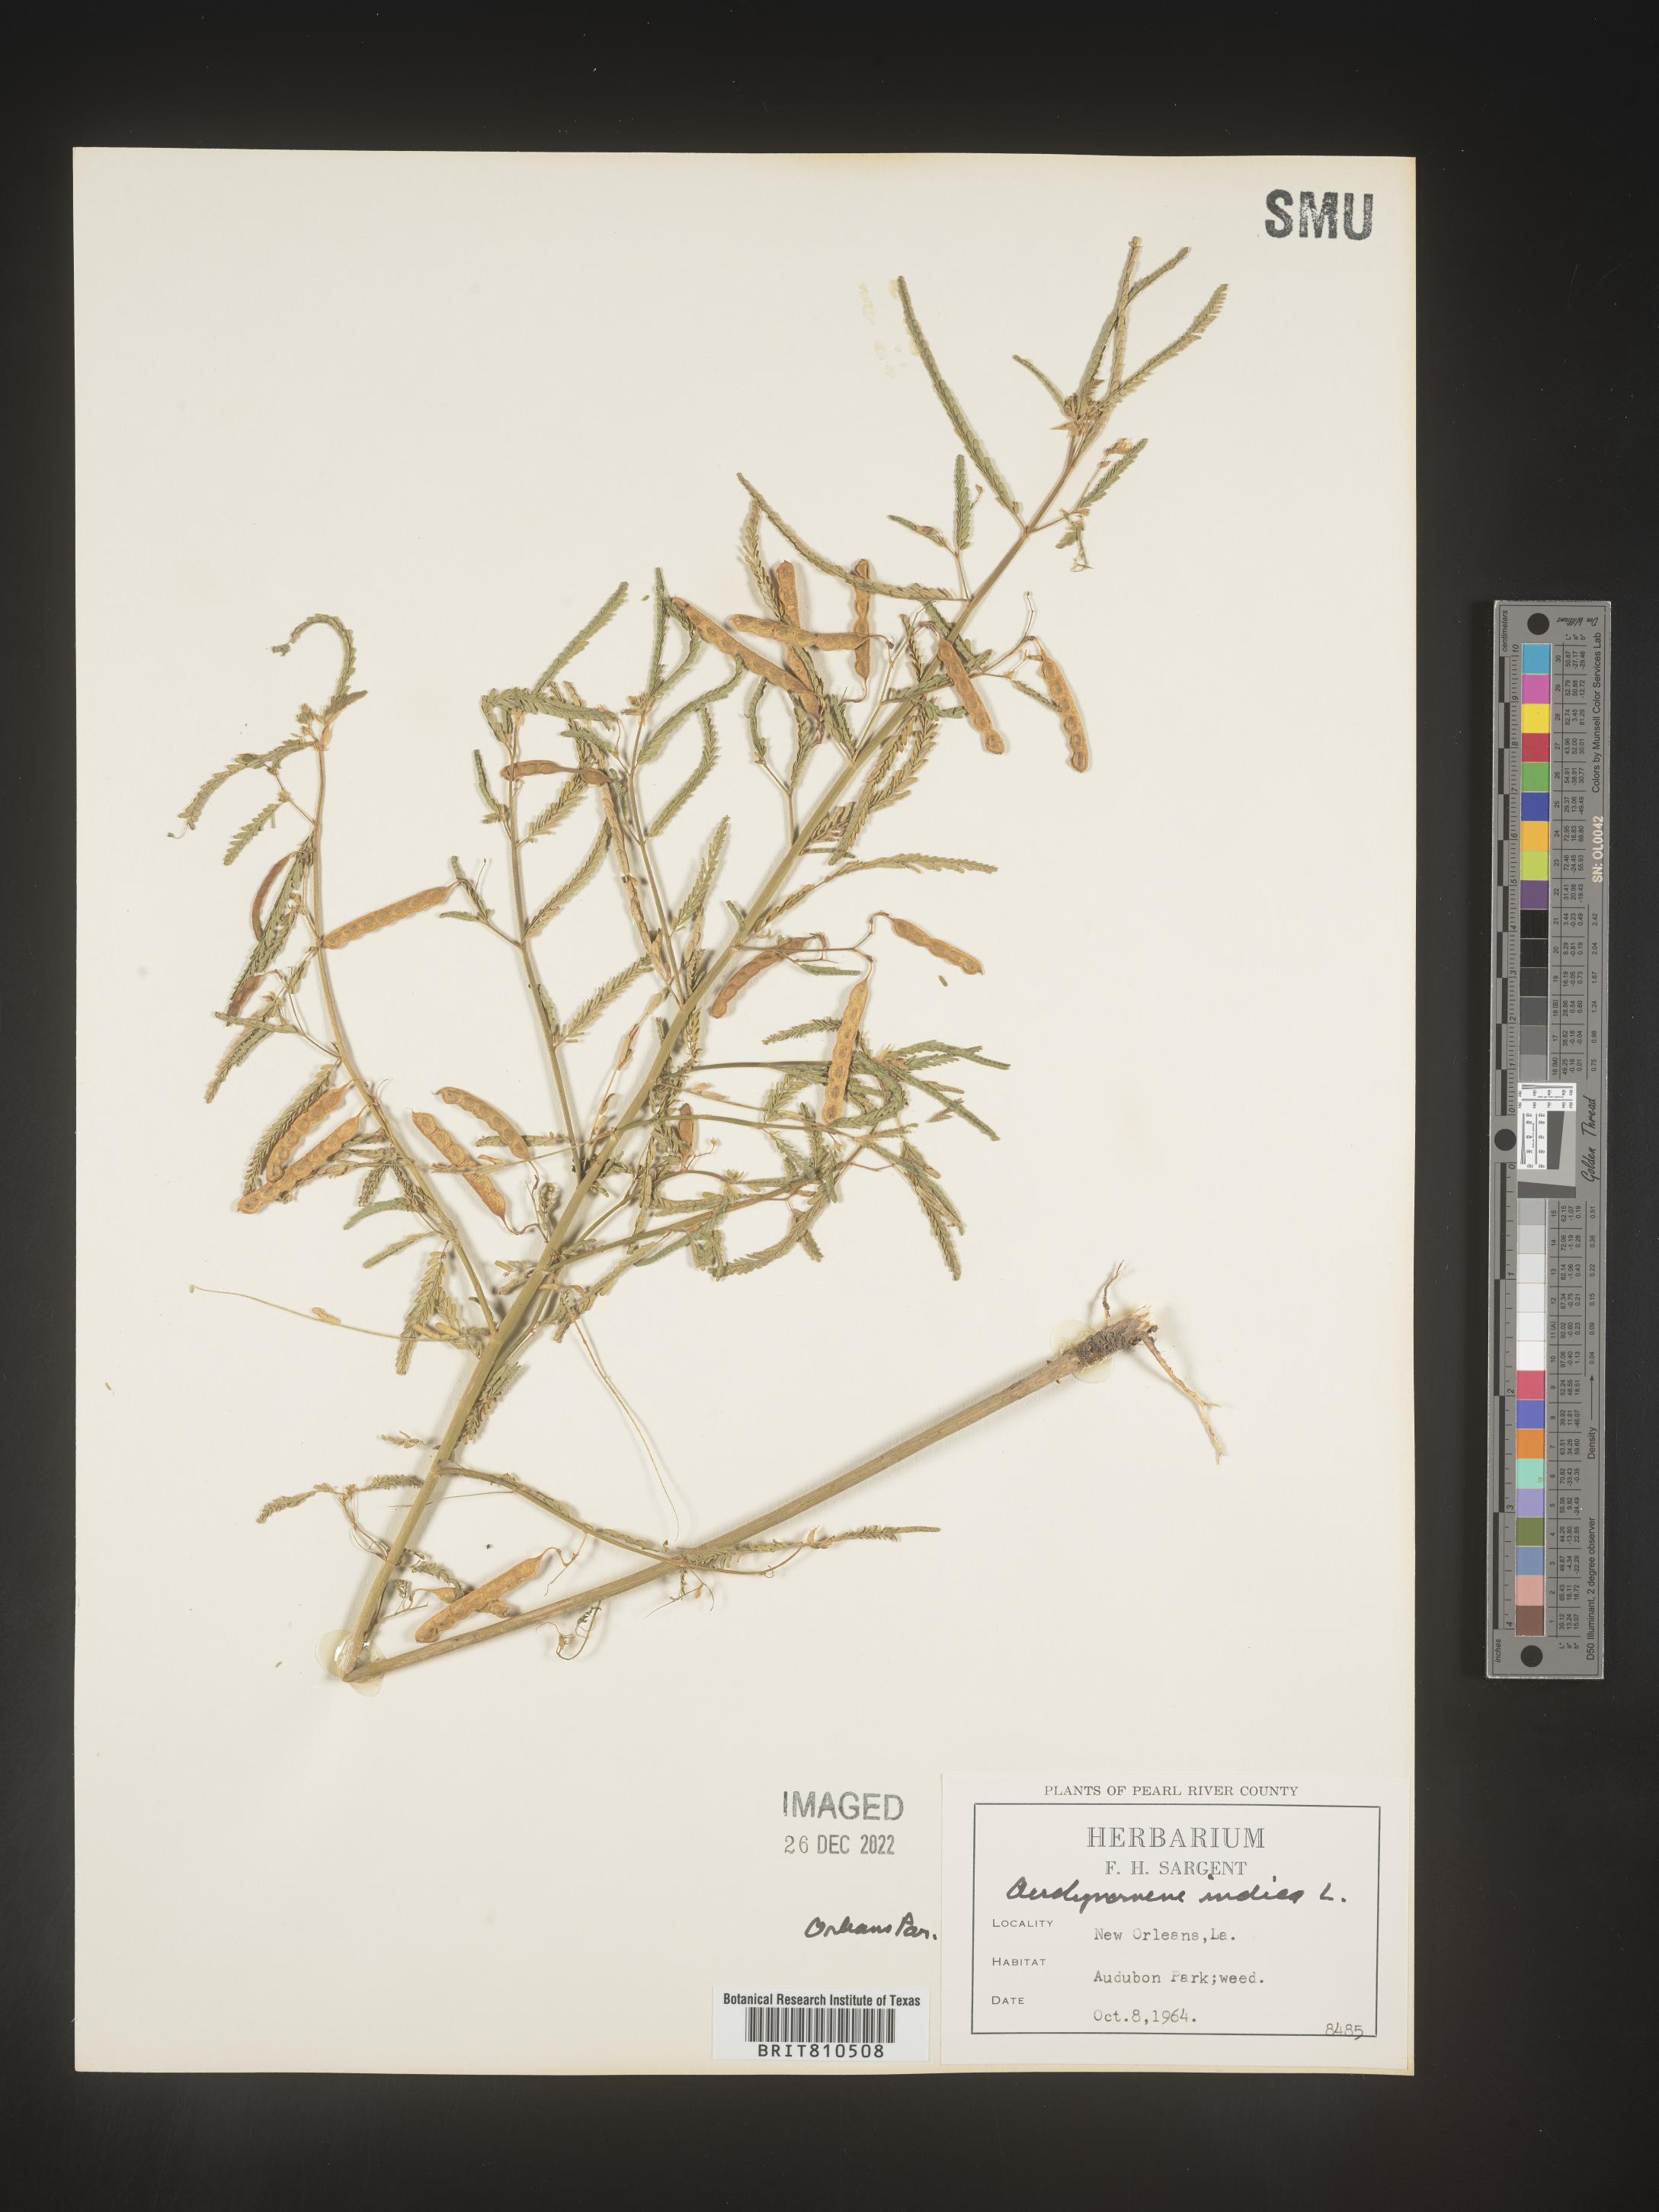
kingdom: Plantae
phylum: Tracheophyta
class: Magnoliopsida
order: Fabales
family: Fabaceae
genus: Aeschynomene
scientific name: Aeschynomene indica
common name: Indian jointvetch
